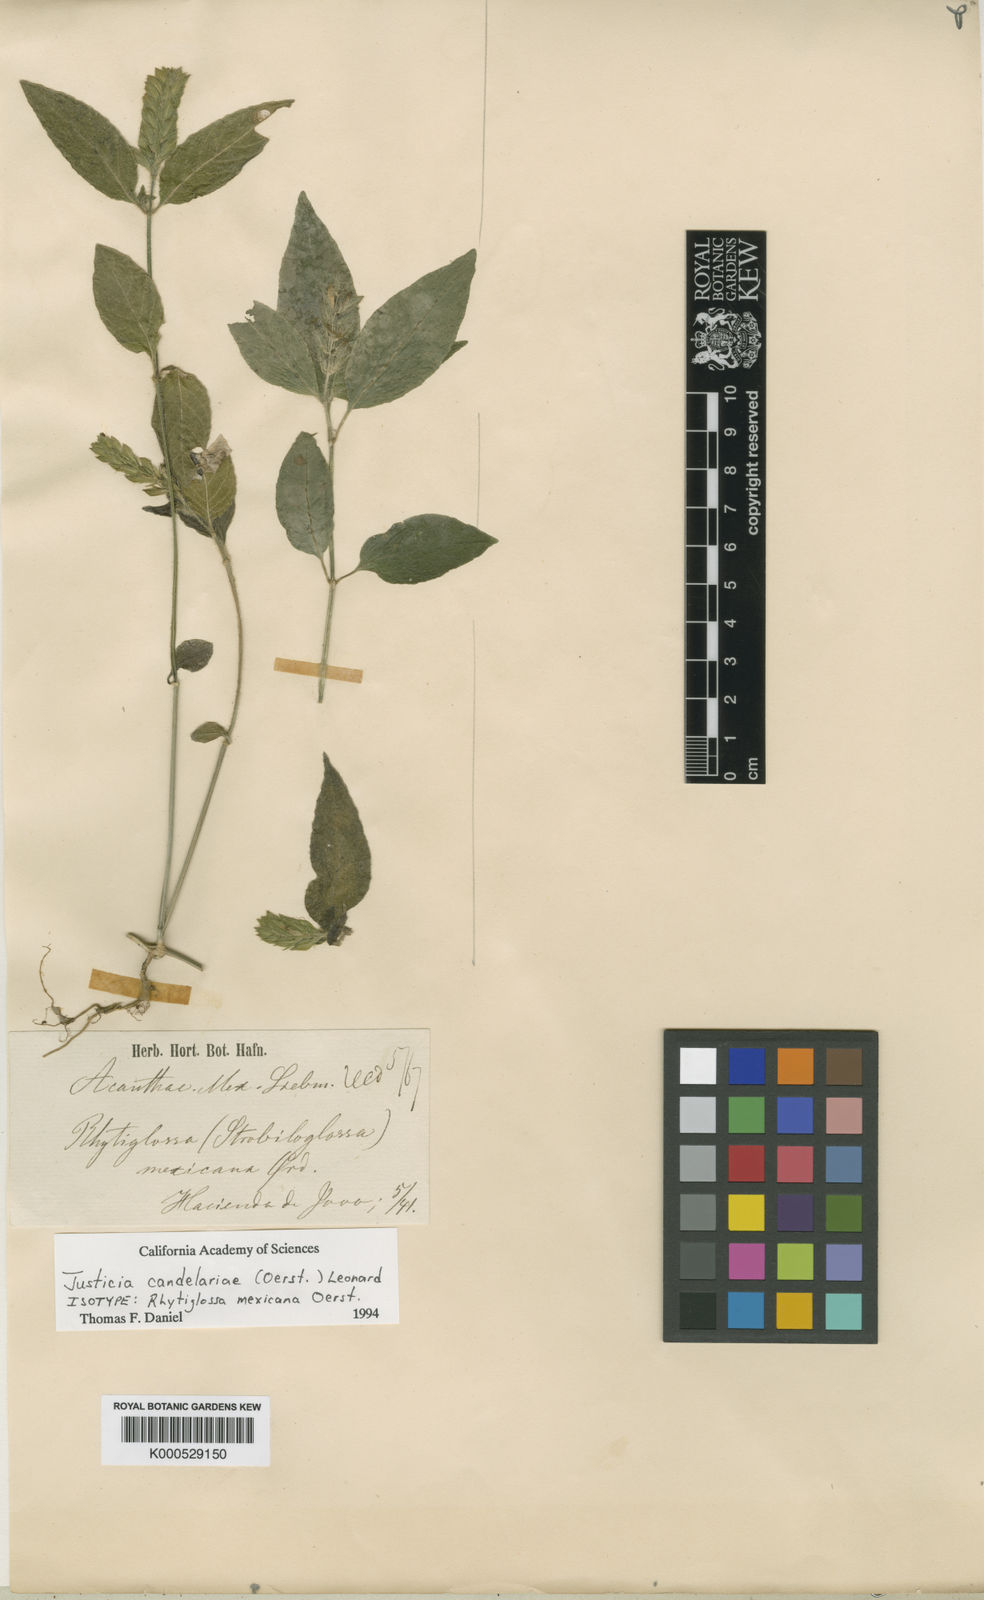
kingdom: Plantae
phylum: Tracheophyta
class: Magnoliopsida
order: Lamiales
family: Acanthaceae
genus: Dianthera
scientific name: Dianthera candelariae
